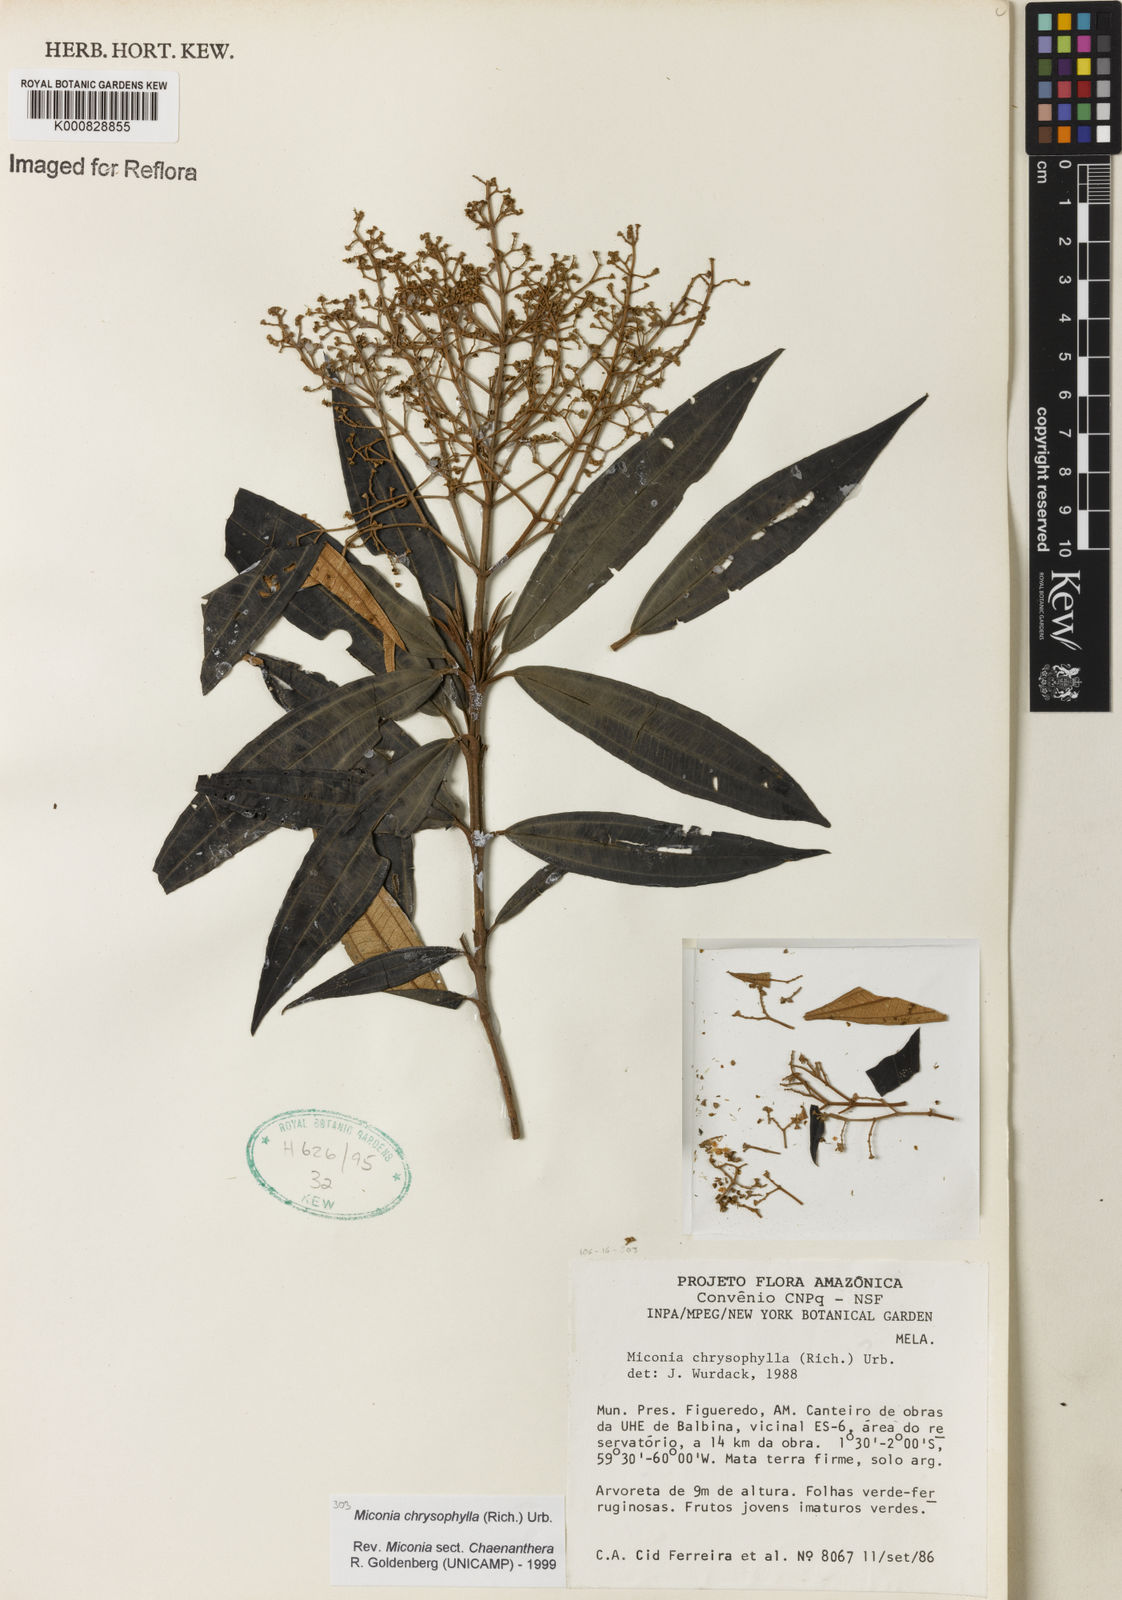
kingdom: Plantae
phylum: Tracheophyta
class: Magnoliopsida
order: Myrtales
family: Melastomataceae
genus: Miconia
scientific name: Miconia chrysophylla
